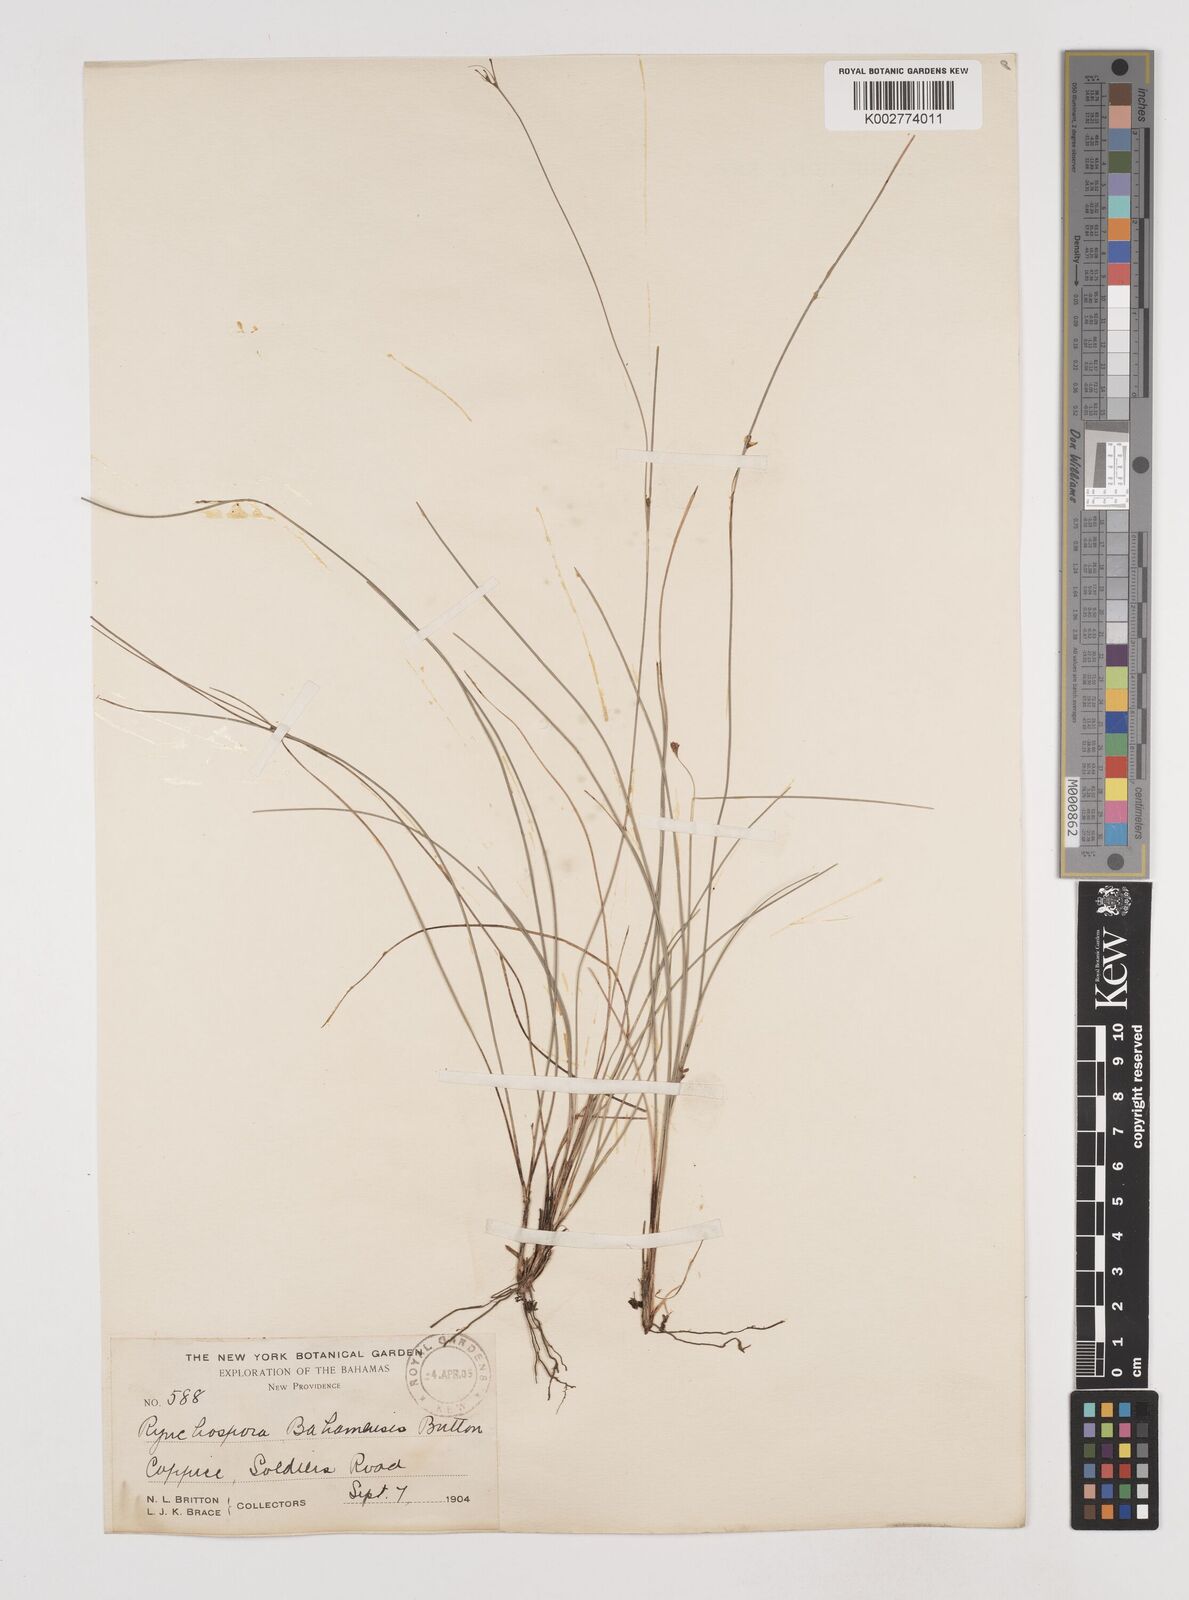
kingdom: Plantae
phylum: Tracheophyta
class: Liliopsida
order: Poales
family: Cyperaceae
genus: Rhynchospora
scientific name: Rhynchospora lindeniana
